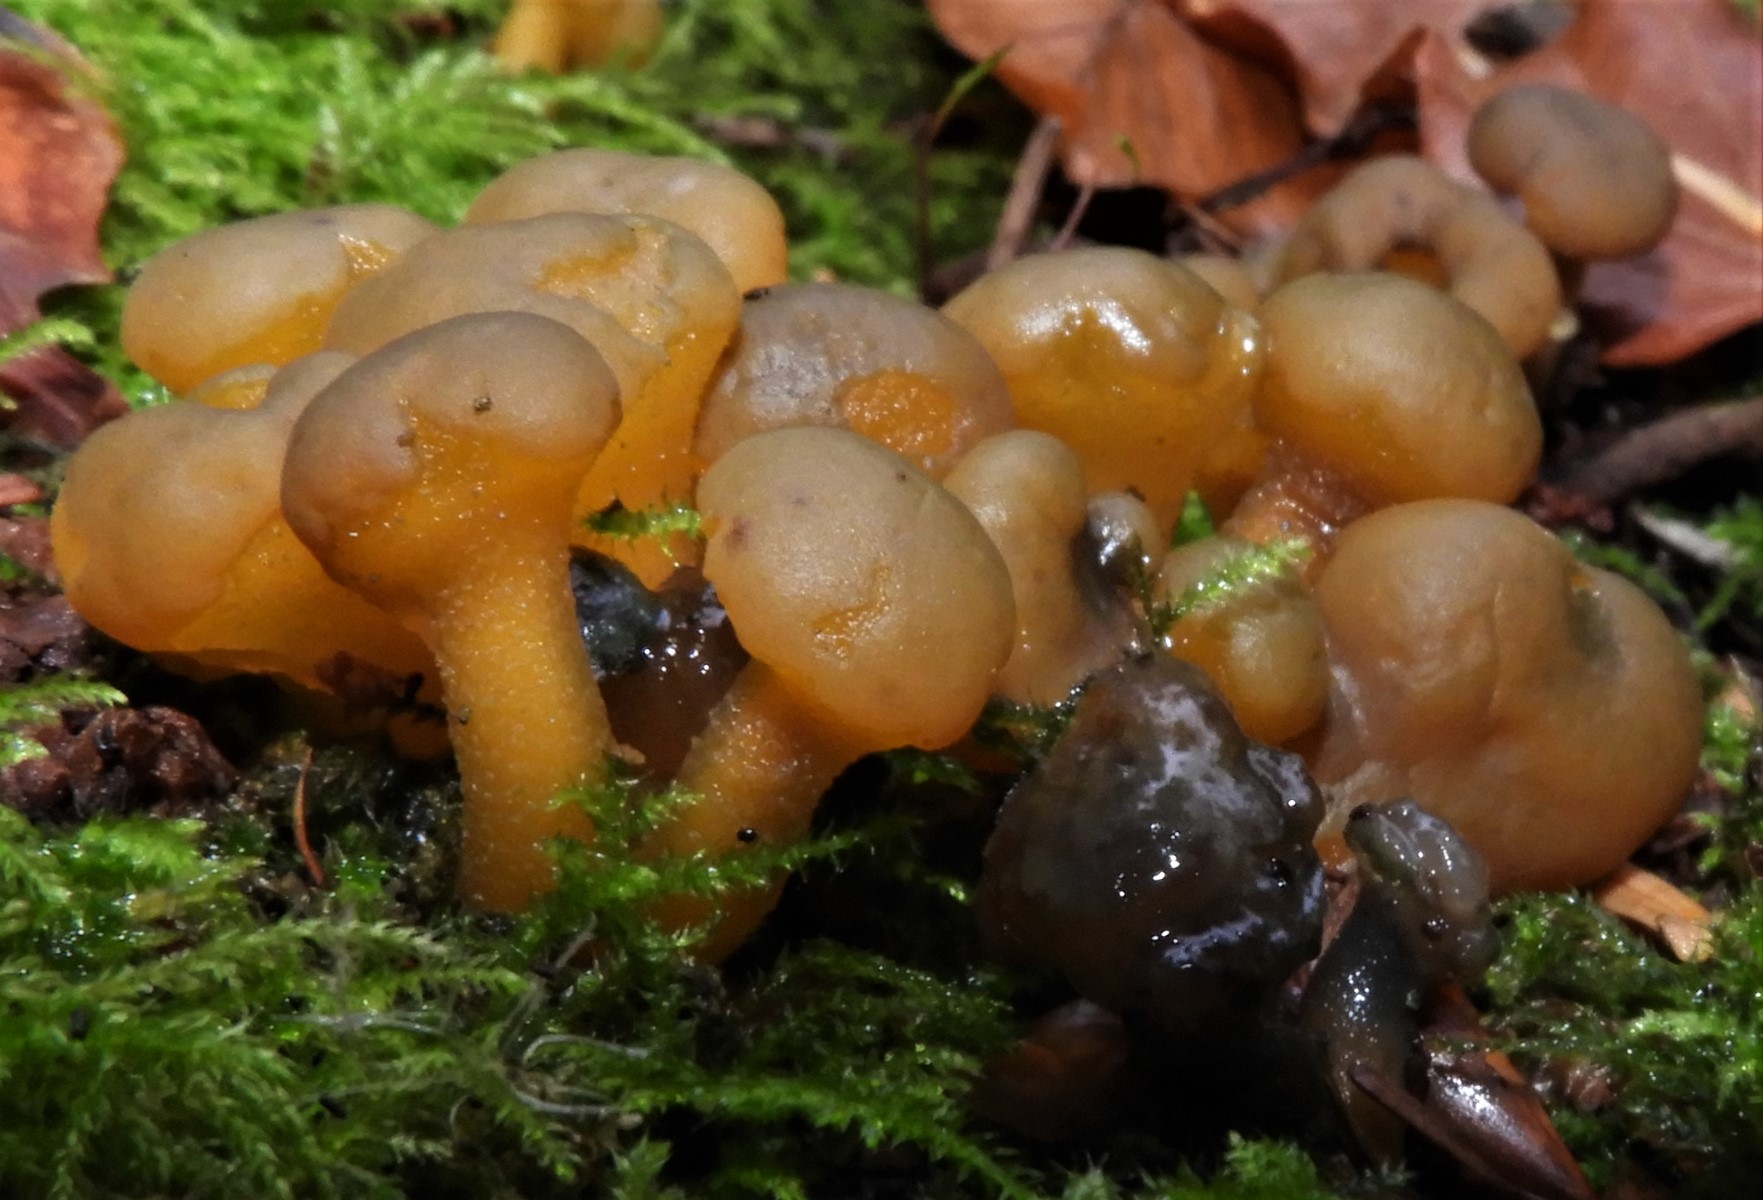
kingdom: Fungi
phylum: Ascomycota
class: Leotiomycetes
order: Leotiales
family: Leotiaceae
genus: Leotia
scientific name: Leotia lubrica
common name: ravsvamp
